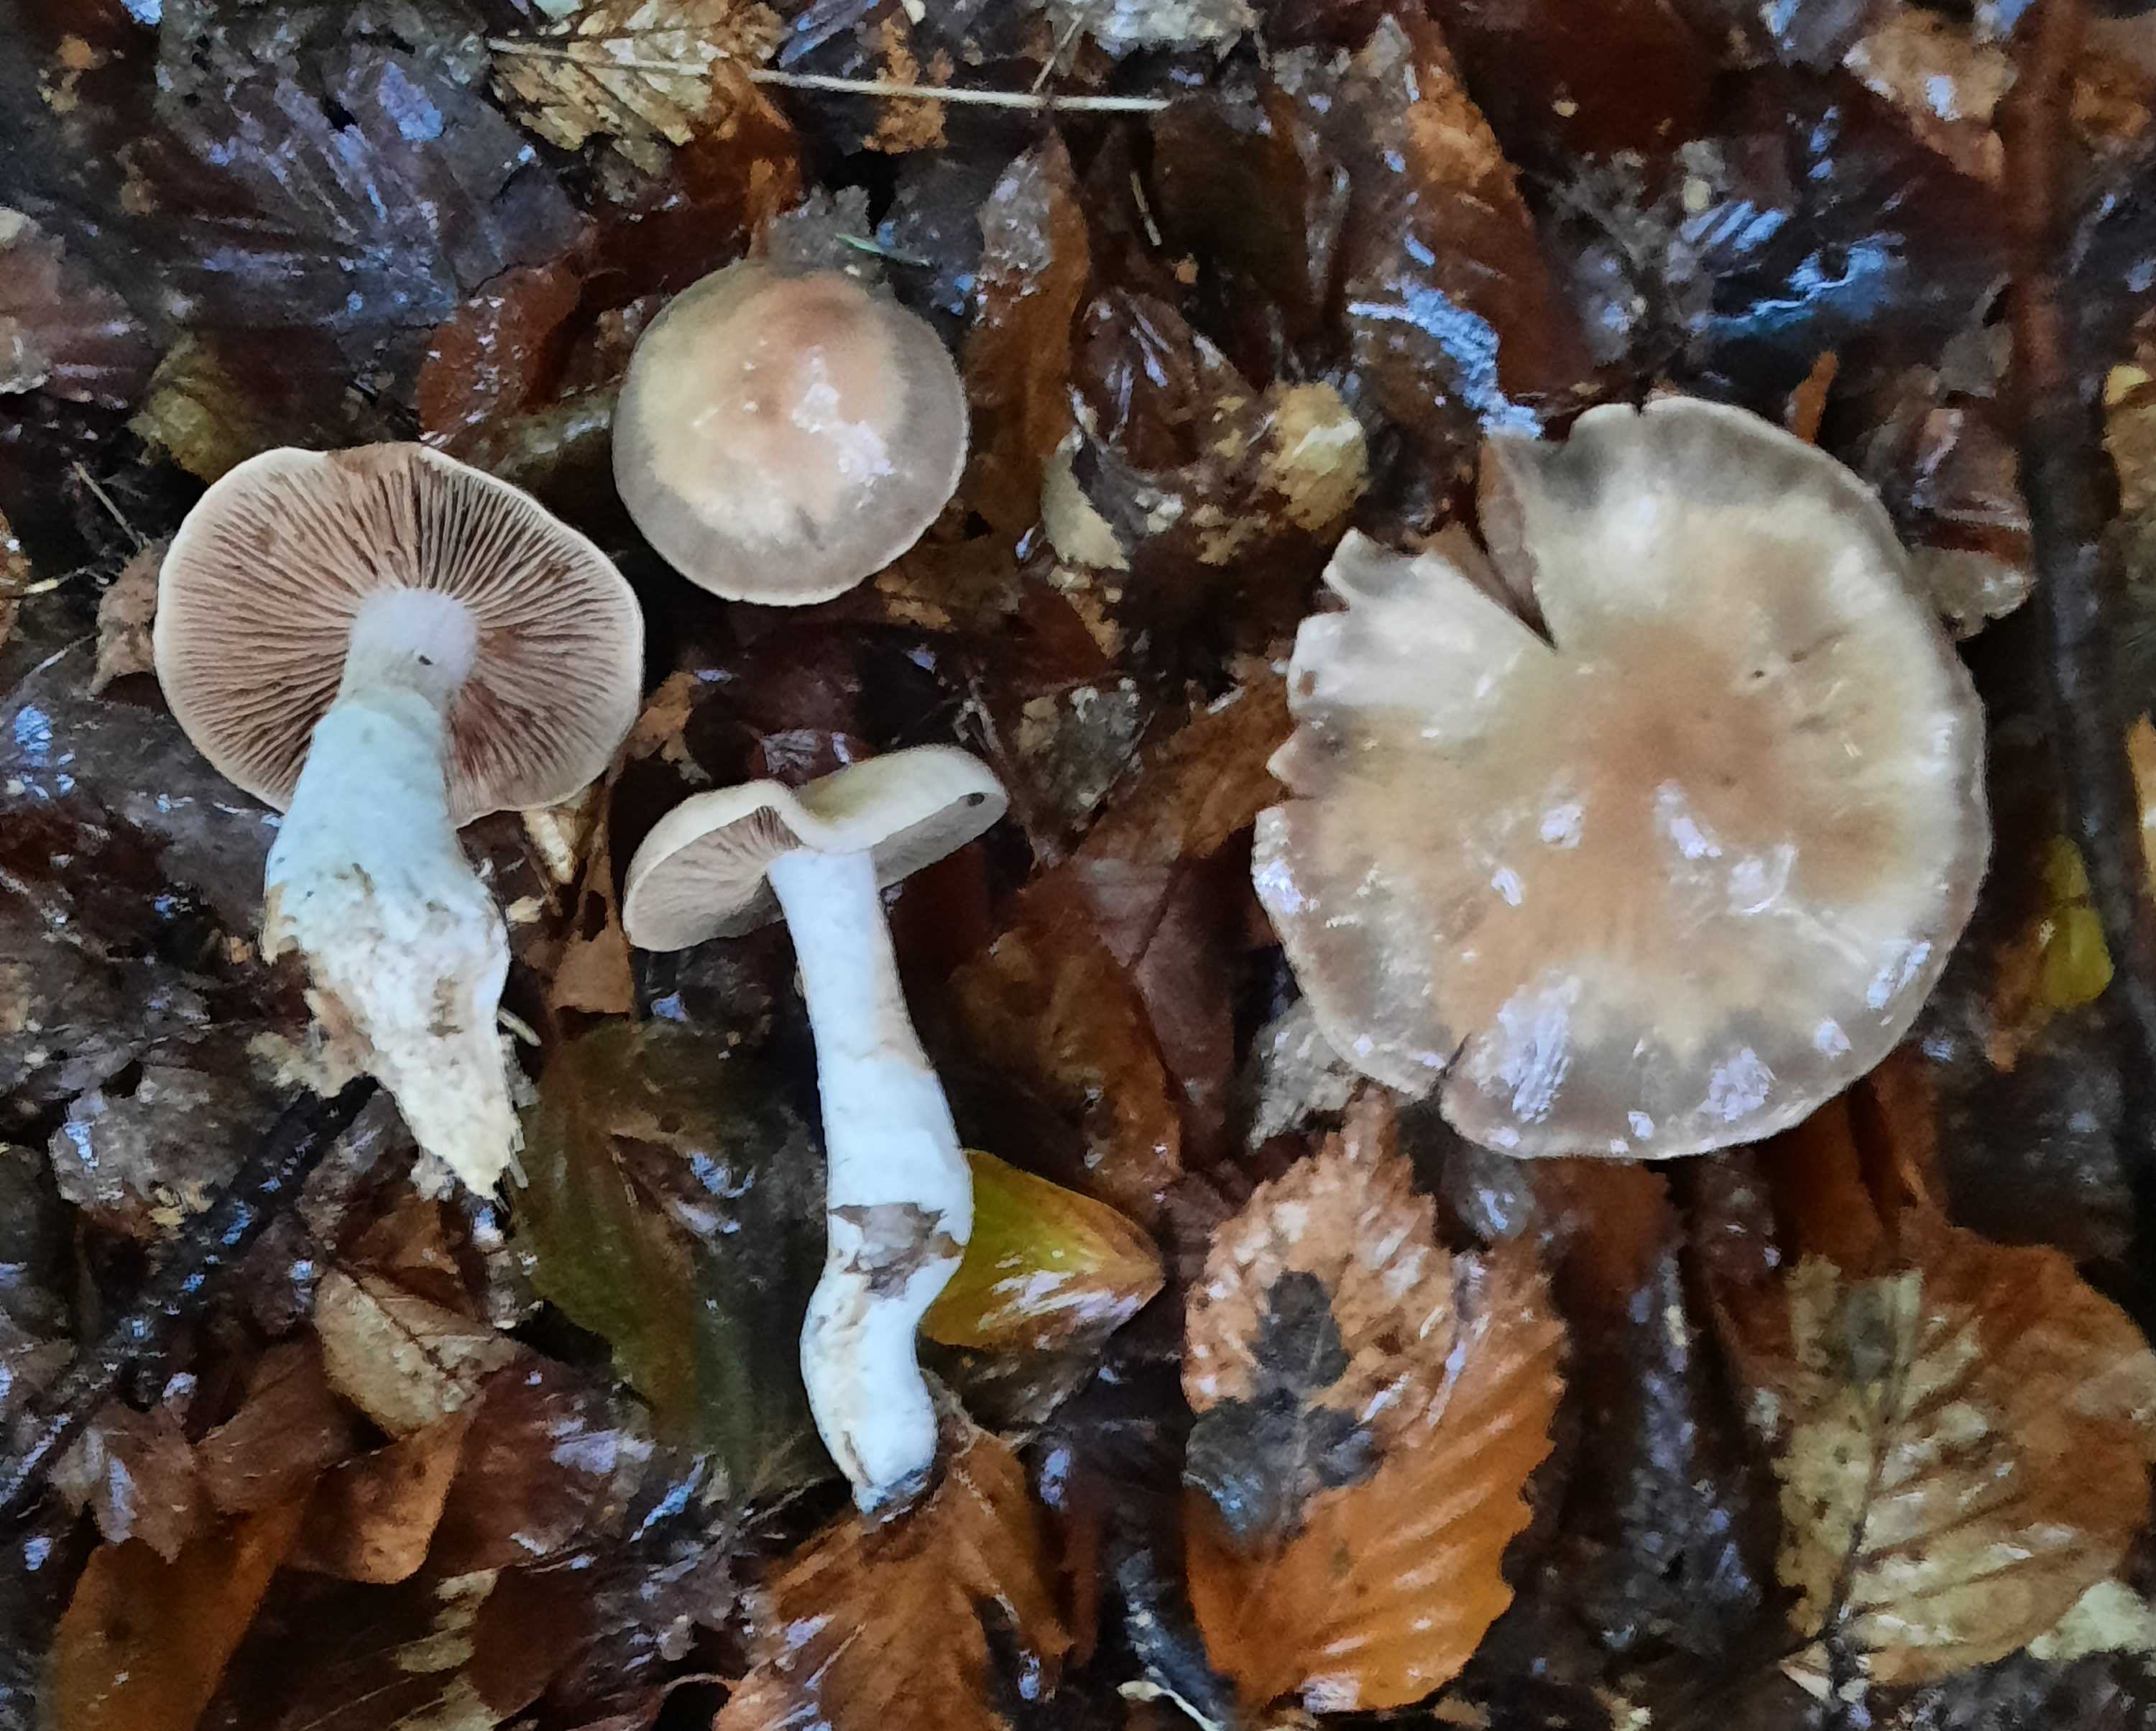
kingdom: Fungi
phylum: Basidiomycota
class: Agaricomycetes
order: Agaricales
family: Cortinariaceae
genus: Cortinarius
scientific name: Cortinarius turgidus
